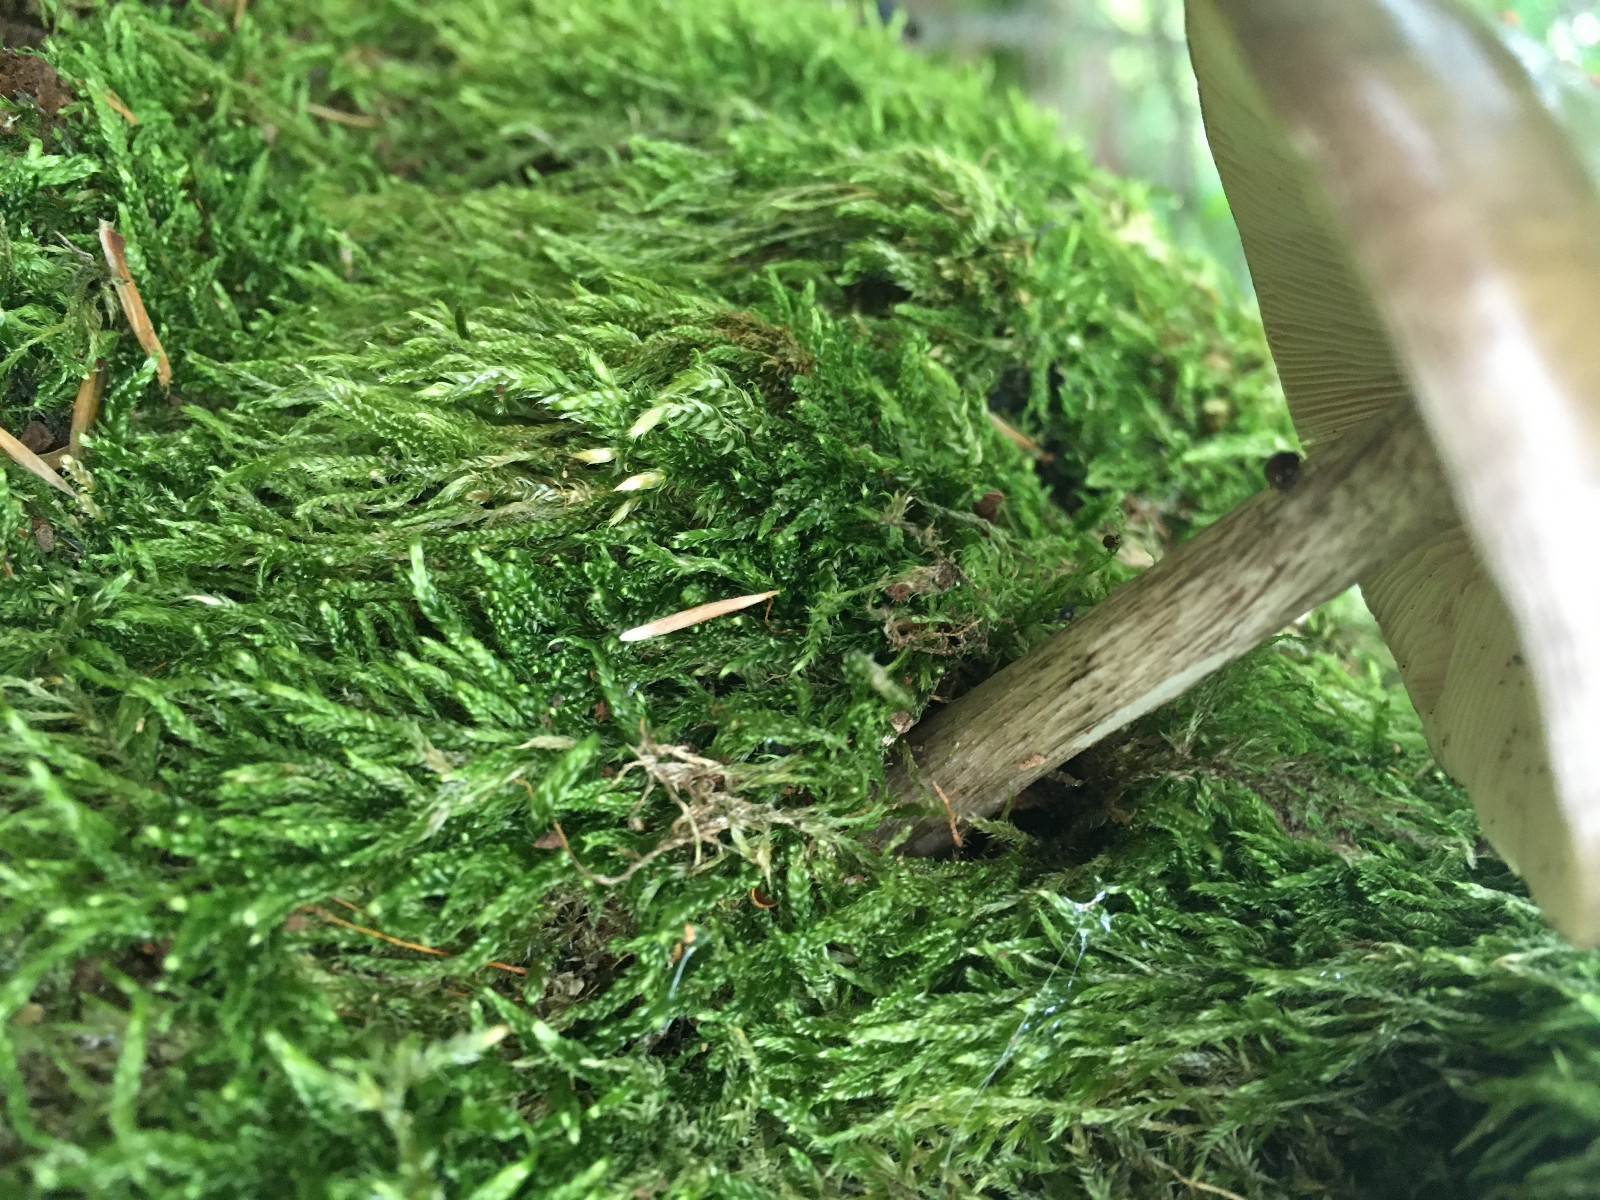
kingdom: Fungi
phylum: Basidiomycota
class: Agaricomycetes
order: Agaricales
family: Pluteaceae
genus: Pluteus
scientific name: Pluteus cervinus
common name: sodfarvet skærmhat
